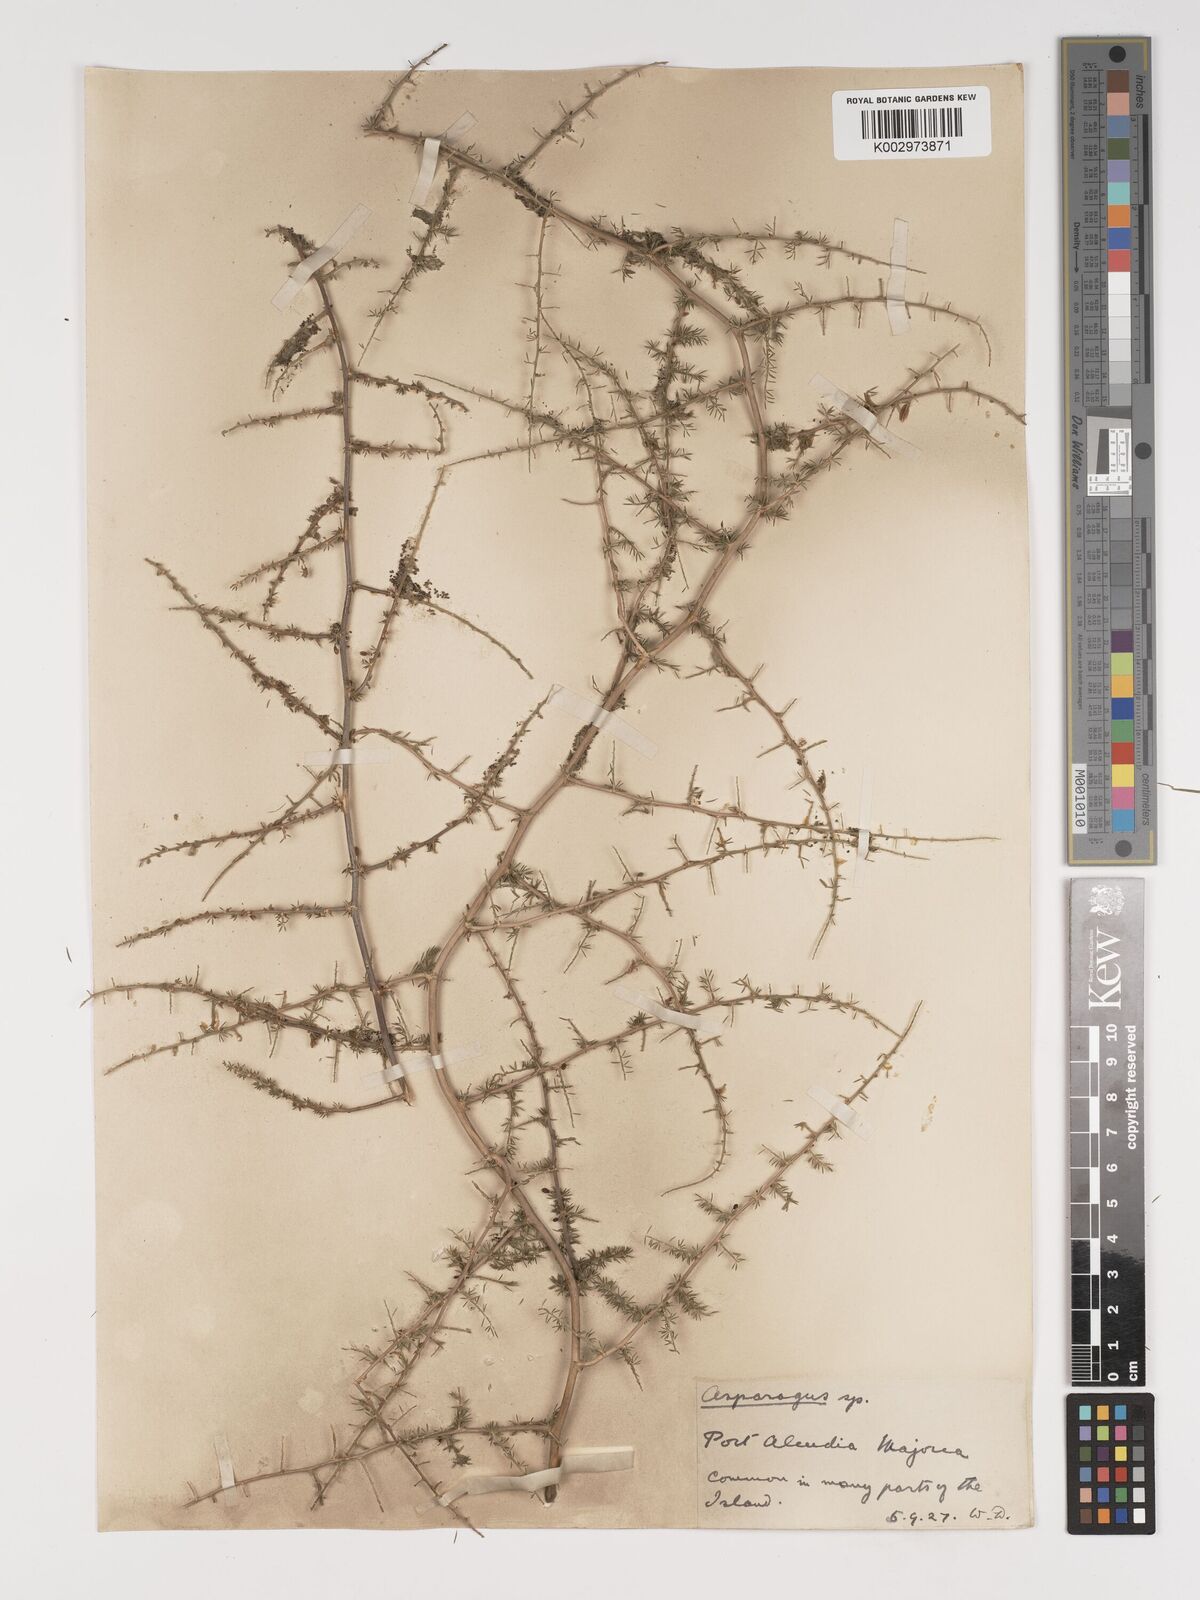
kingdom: Plantae
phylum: Tracheophyta
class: Liliopsida
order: Asparagales
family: Asparagaceae
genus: Asparagus
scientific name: Asparagus acutifolius
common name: Wild asparagus
